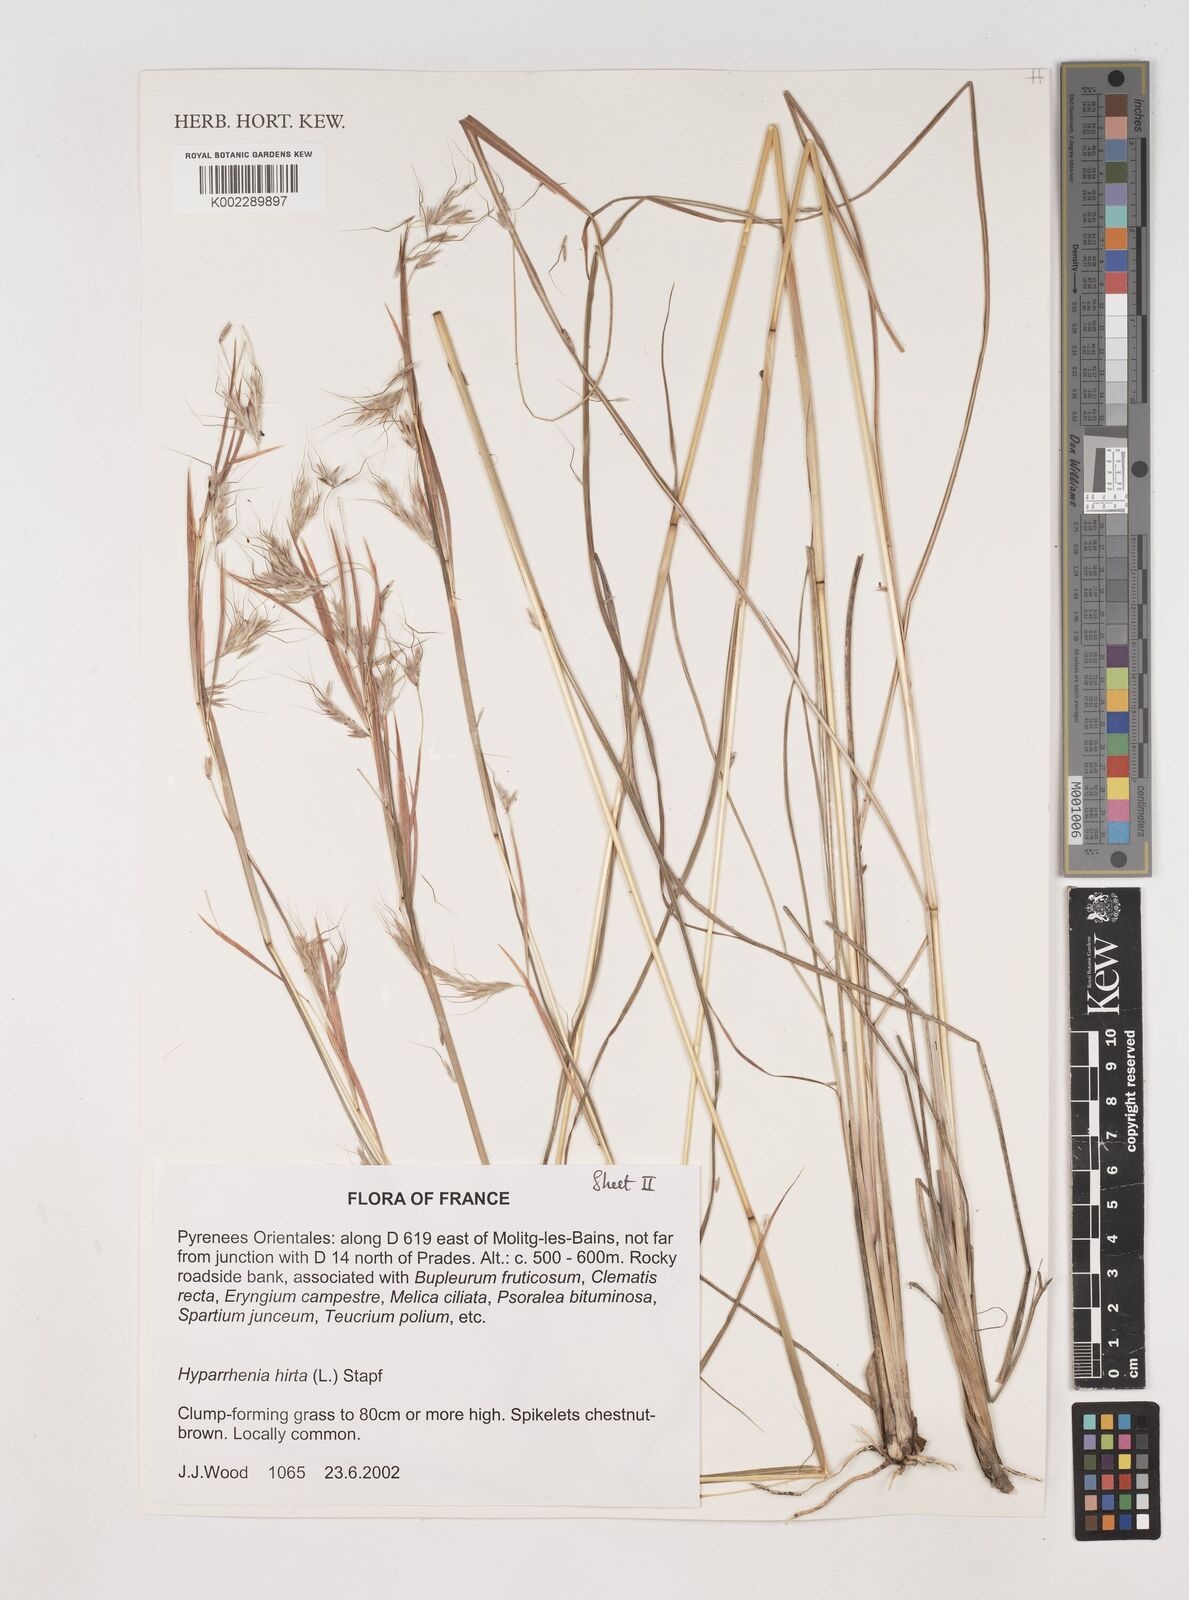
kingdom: Plantae
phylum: Tracheophyta
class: Liliopsida
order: Poales
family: Poaceae
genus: Hyparrhenia
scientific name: Hyparrhenia hirta
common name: Thatching grass
